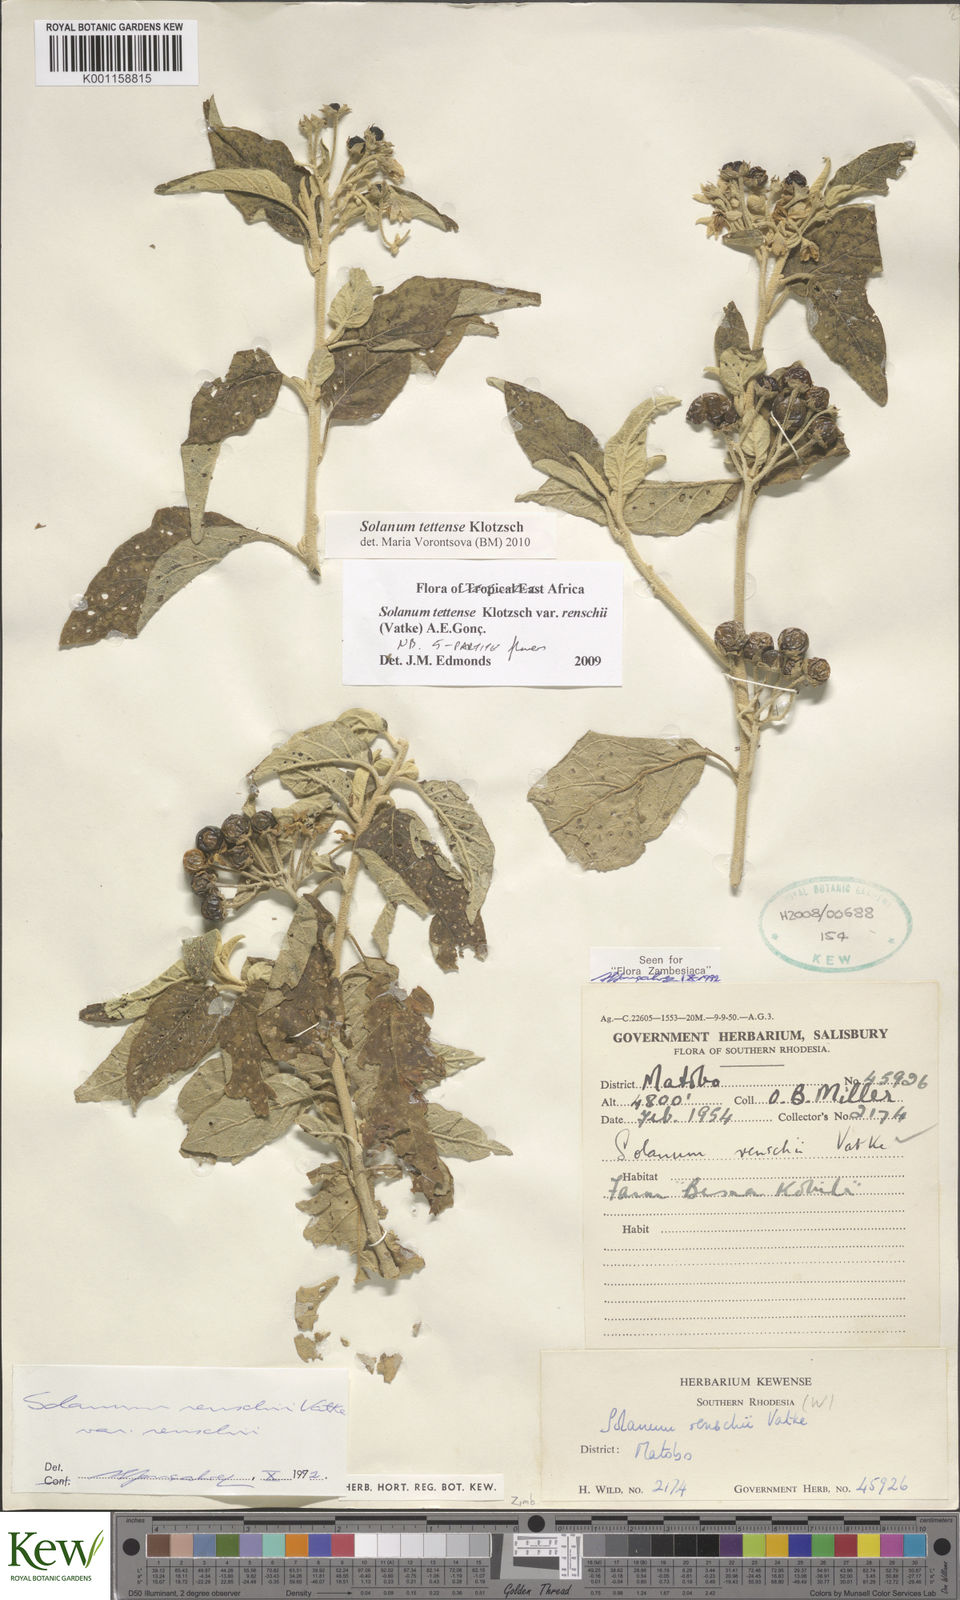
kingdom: Plantae
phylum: Tracheophyta
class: Magnoliopsida
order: Solanales
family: Solanaceae
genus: Solanum
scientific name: Solanum tettense
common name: Mozambique bitter apple
